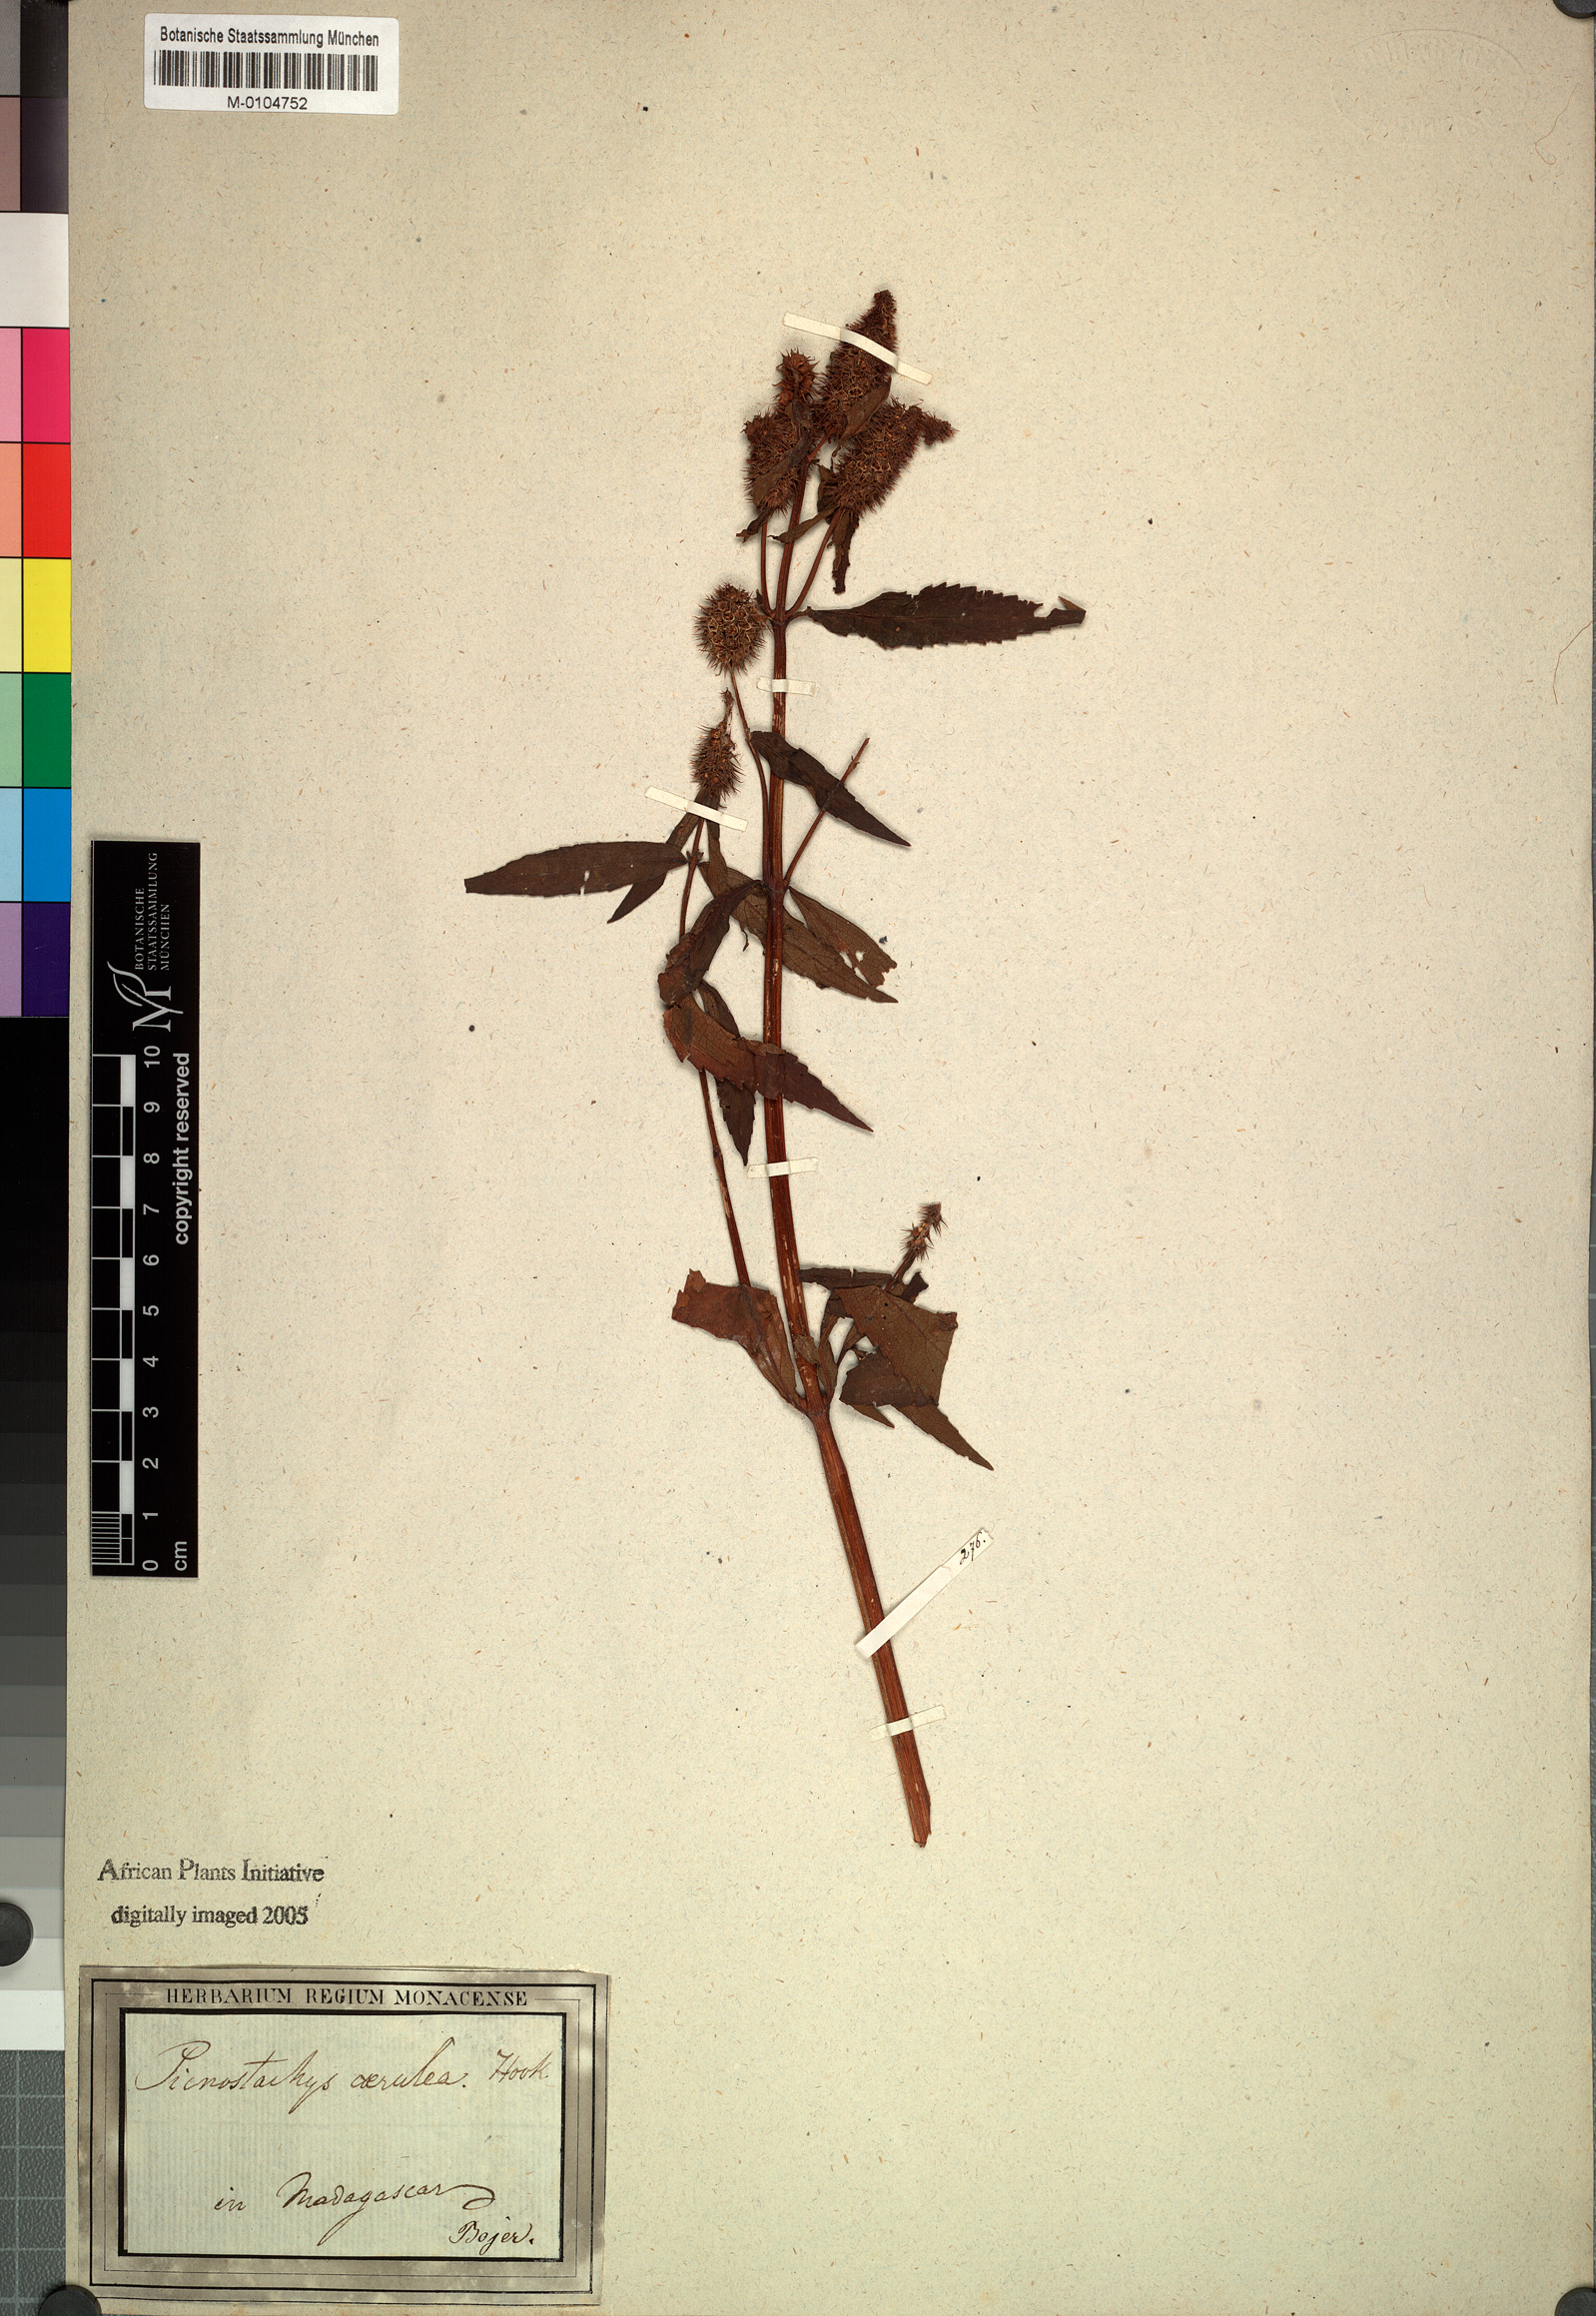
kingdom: Plantae
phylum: Tracheophyta
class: Magnoliopsida
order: Lamiales
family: Lamiaceae
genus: Coleus
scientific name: Coleus stenostachys
